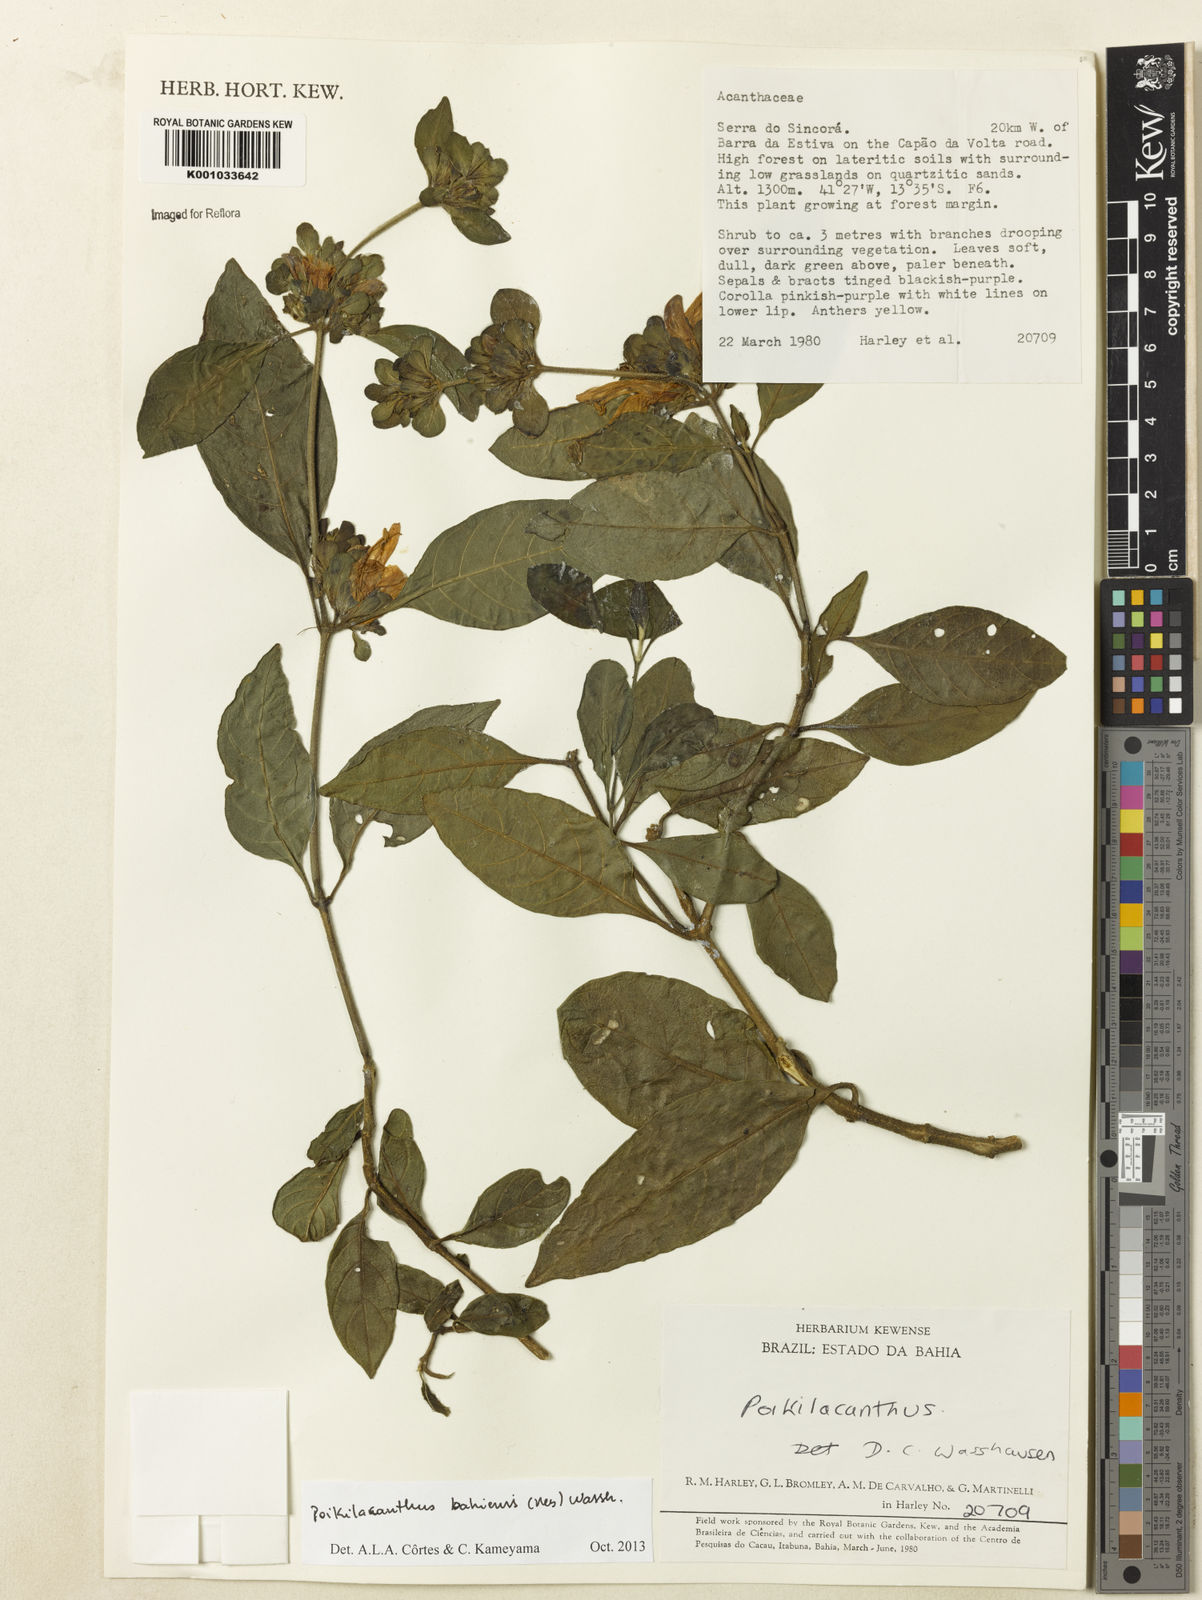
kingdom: Plantae
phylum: Tracheophyta
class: Magnoliopsida
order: Lamiales
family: Acanthaceae
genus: Poikilacanthus
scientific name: Poikilacanthus bahiensis
